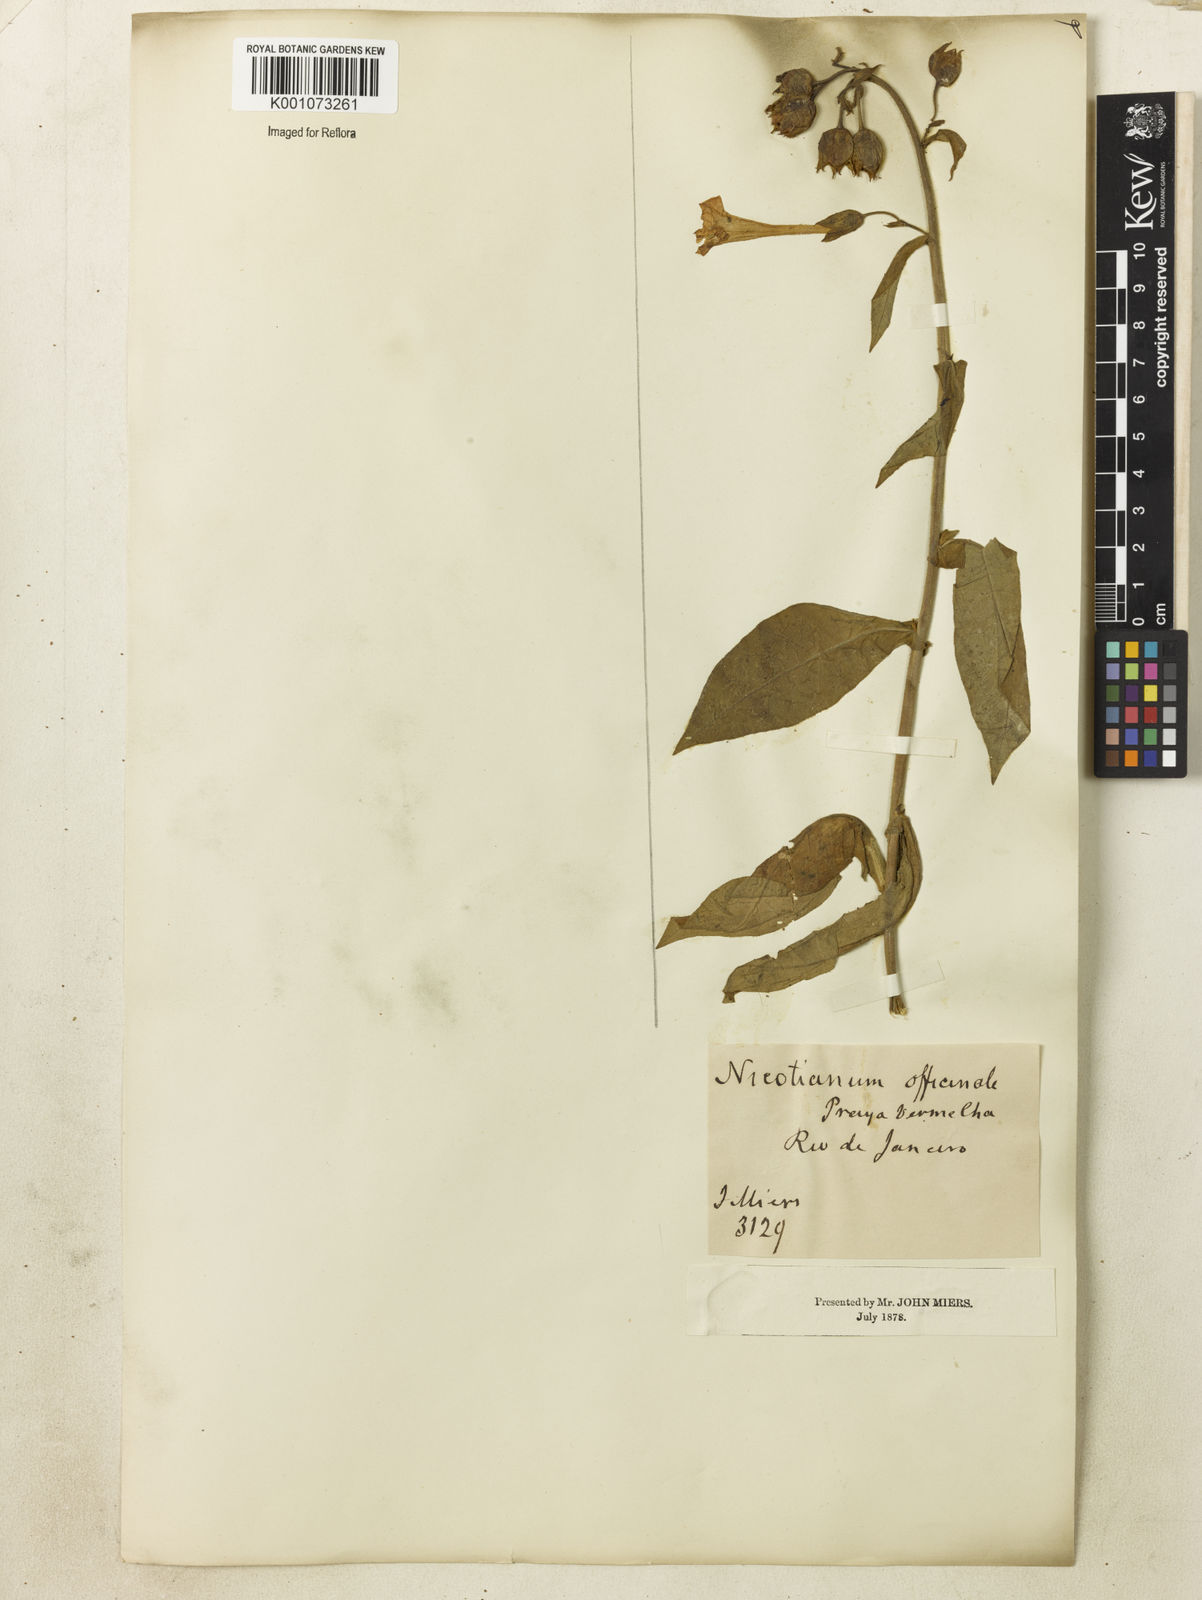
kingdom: Plantae
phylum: Tracheophyta
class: Magnoliopsida
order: Solanales
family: Solanaceae
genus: Nicotiana
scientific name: Nicotiana tabacum
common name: Tobacco
